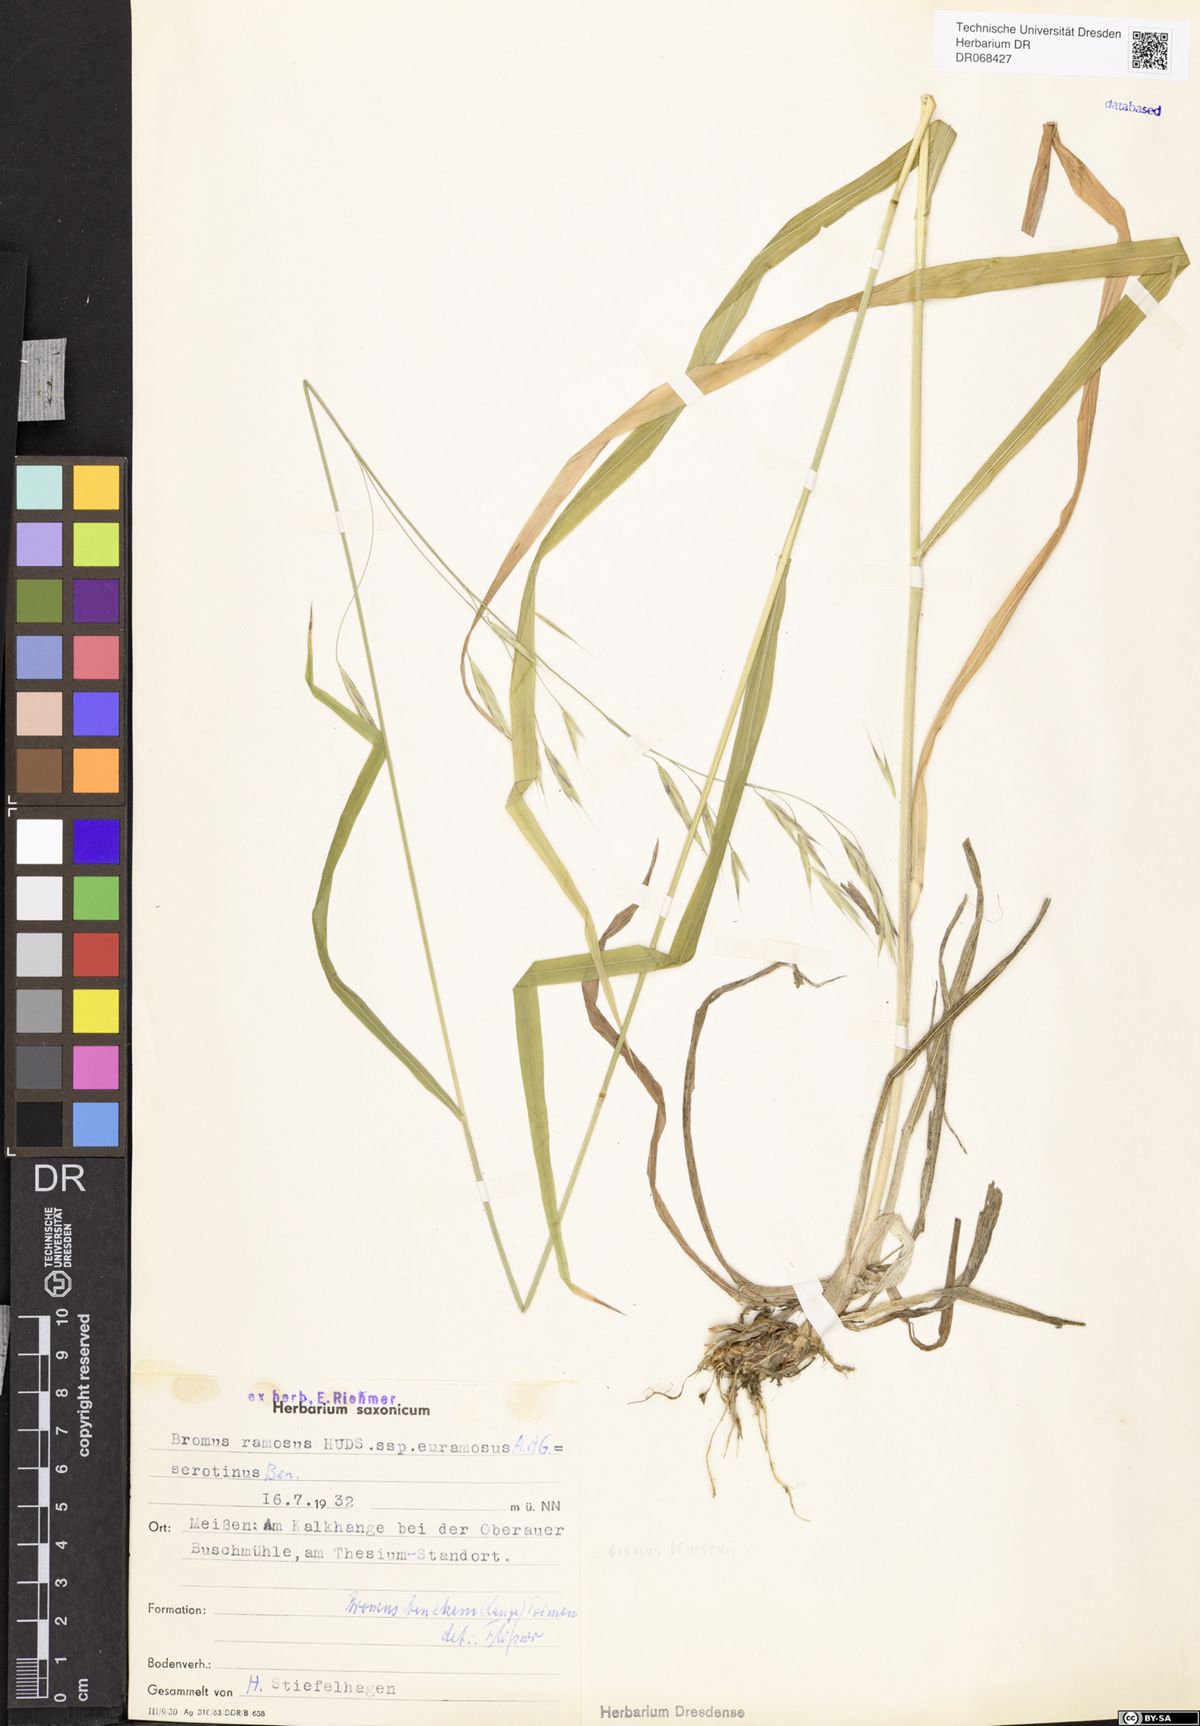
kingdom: Plantae
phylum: Tracheophyta
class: Liliopsida
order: Poales
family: Poaceae
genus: Bromus
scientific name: Bromus benekenii
